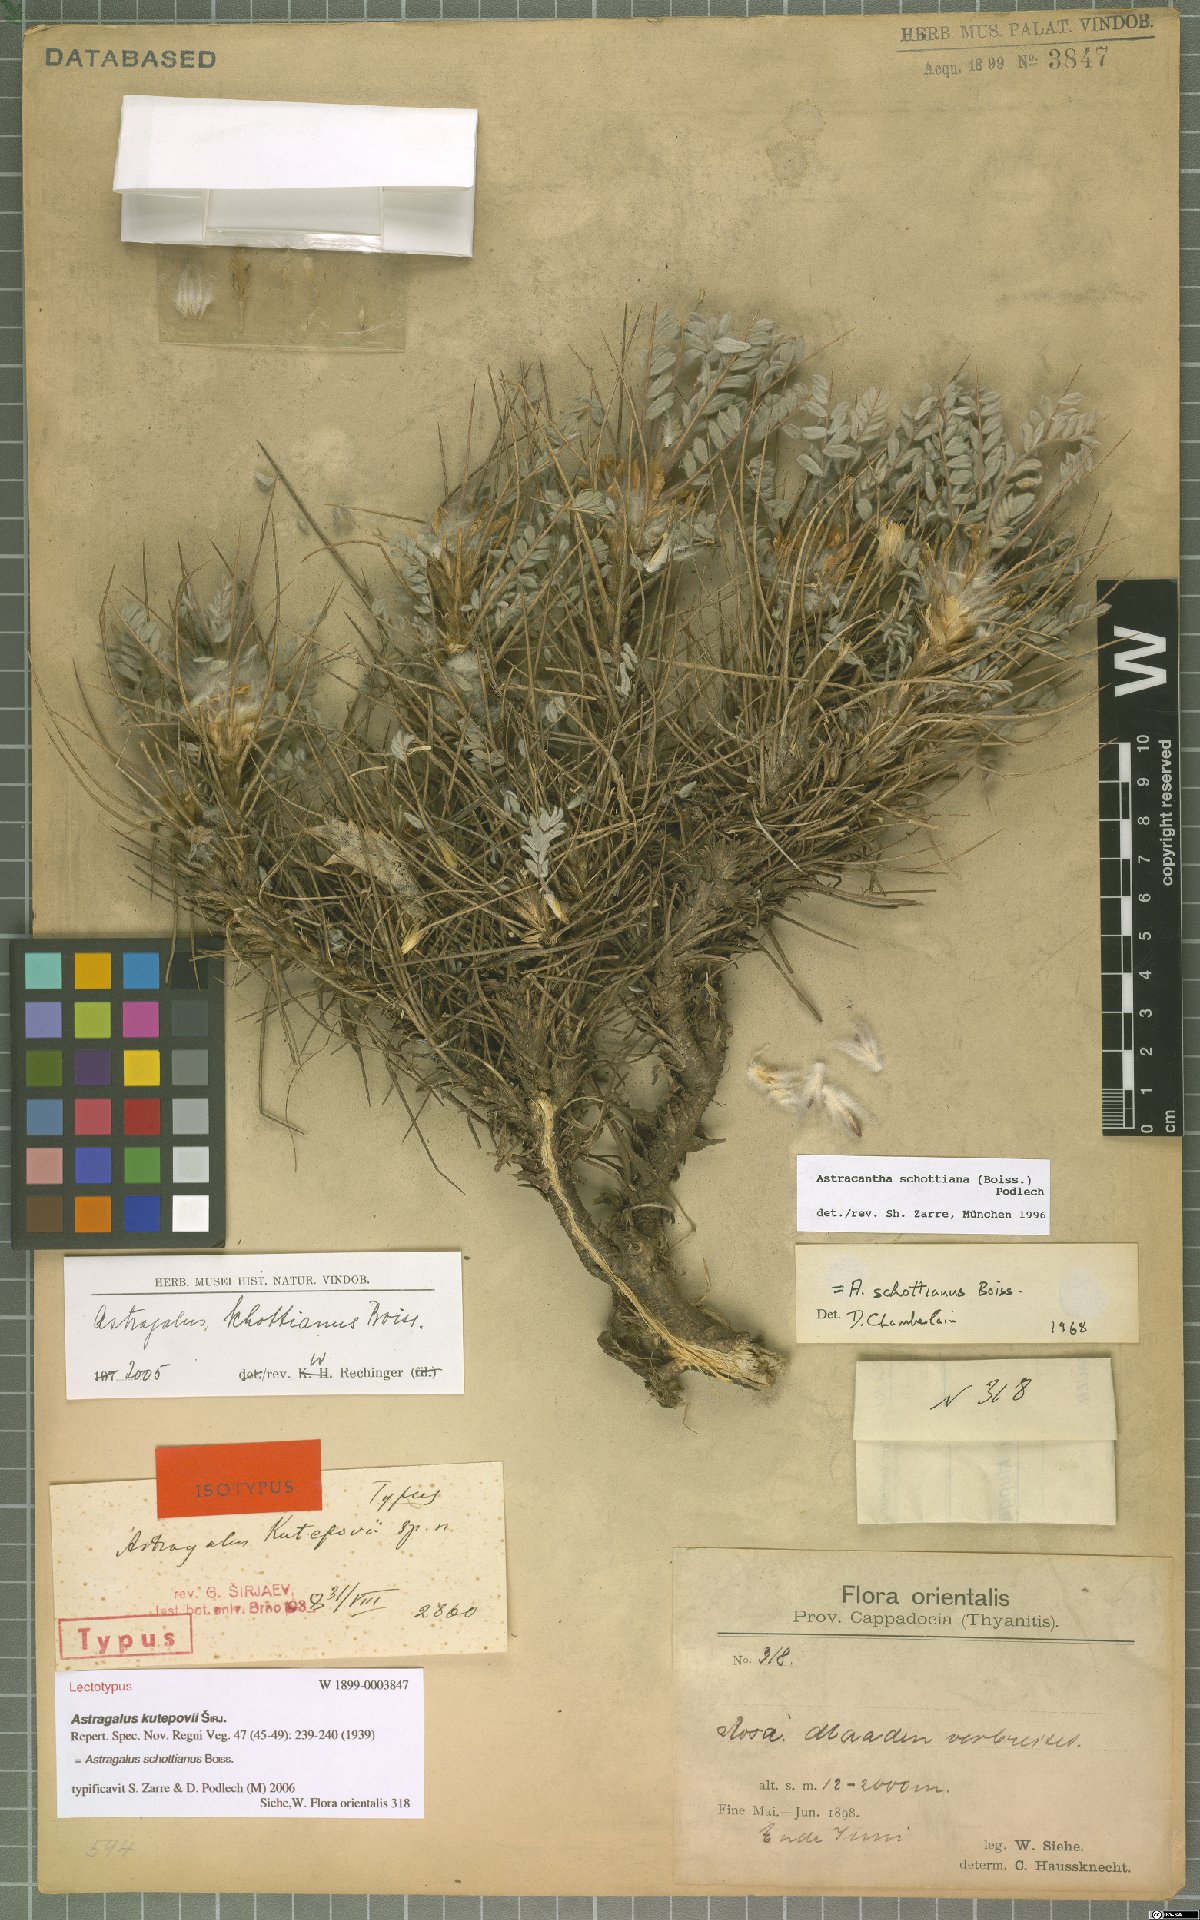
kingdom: Plantae
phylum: Tracheophyta
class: Magnoliopsida
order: Fabales
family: Fabaceae
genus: Astragalus
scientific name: Astragalus schottianus
